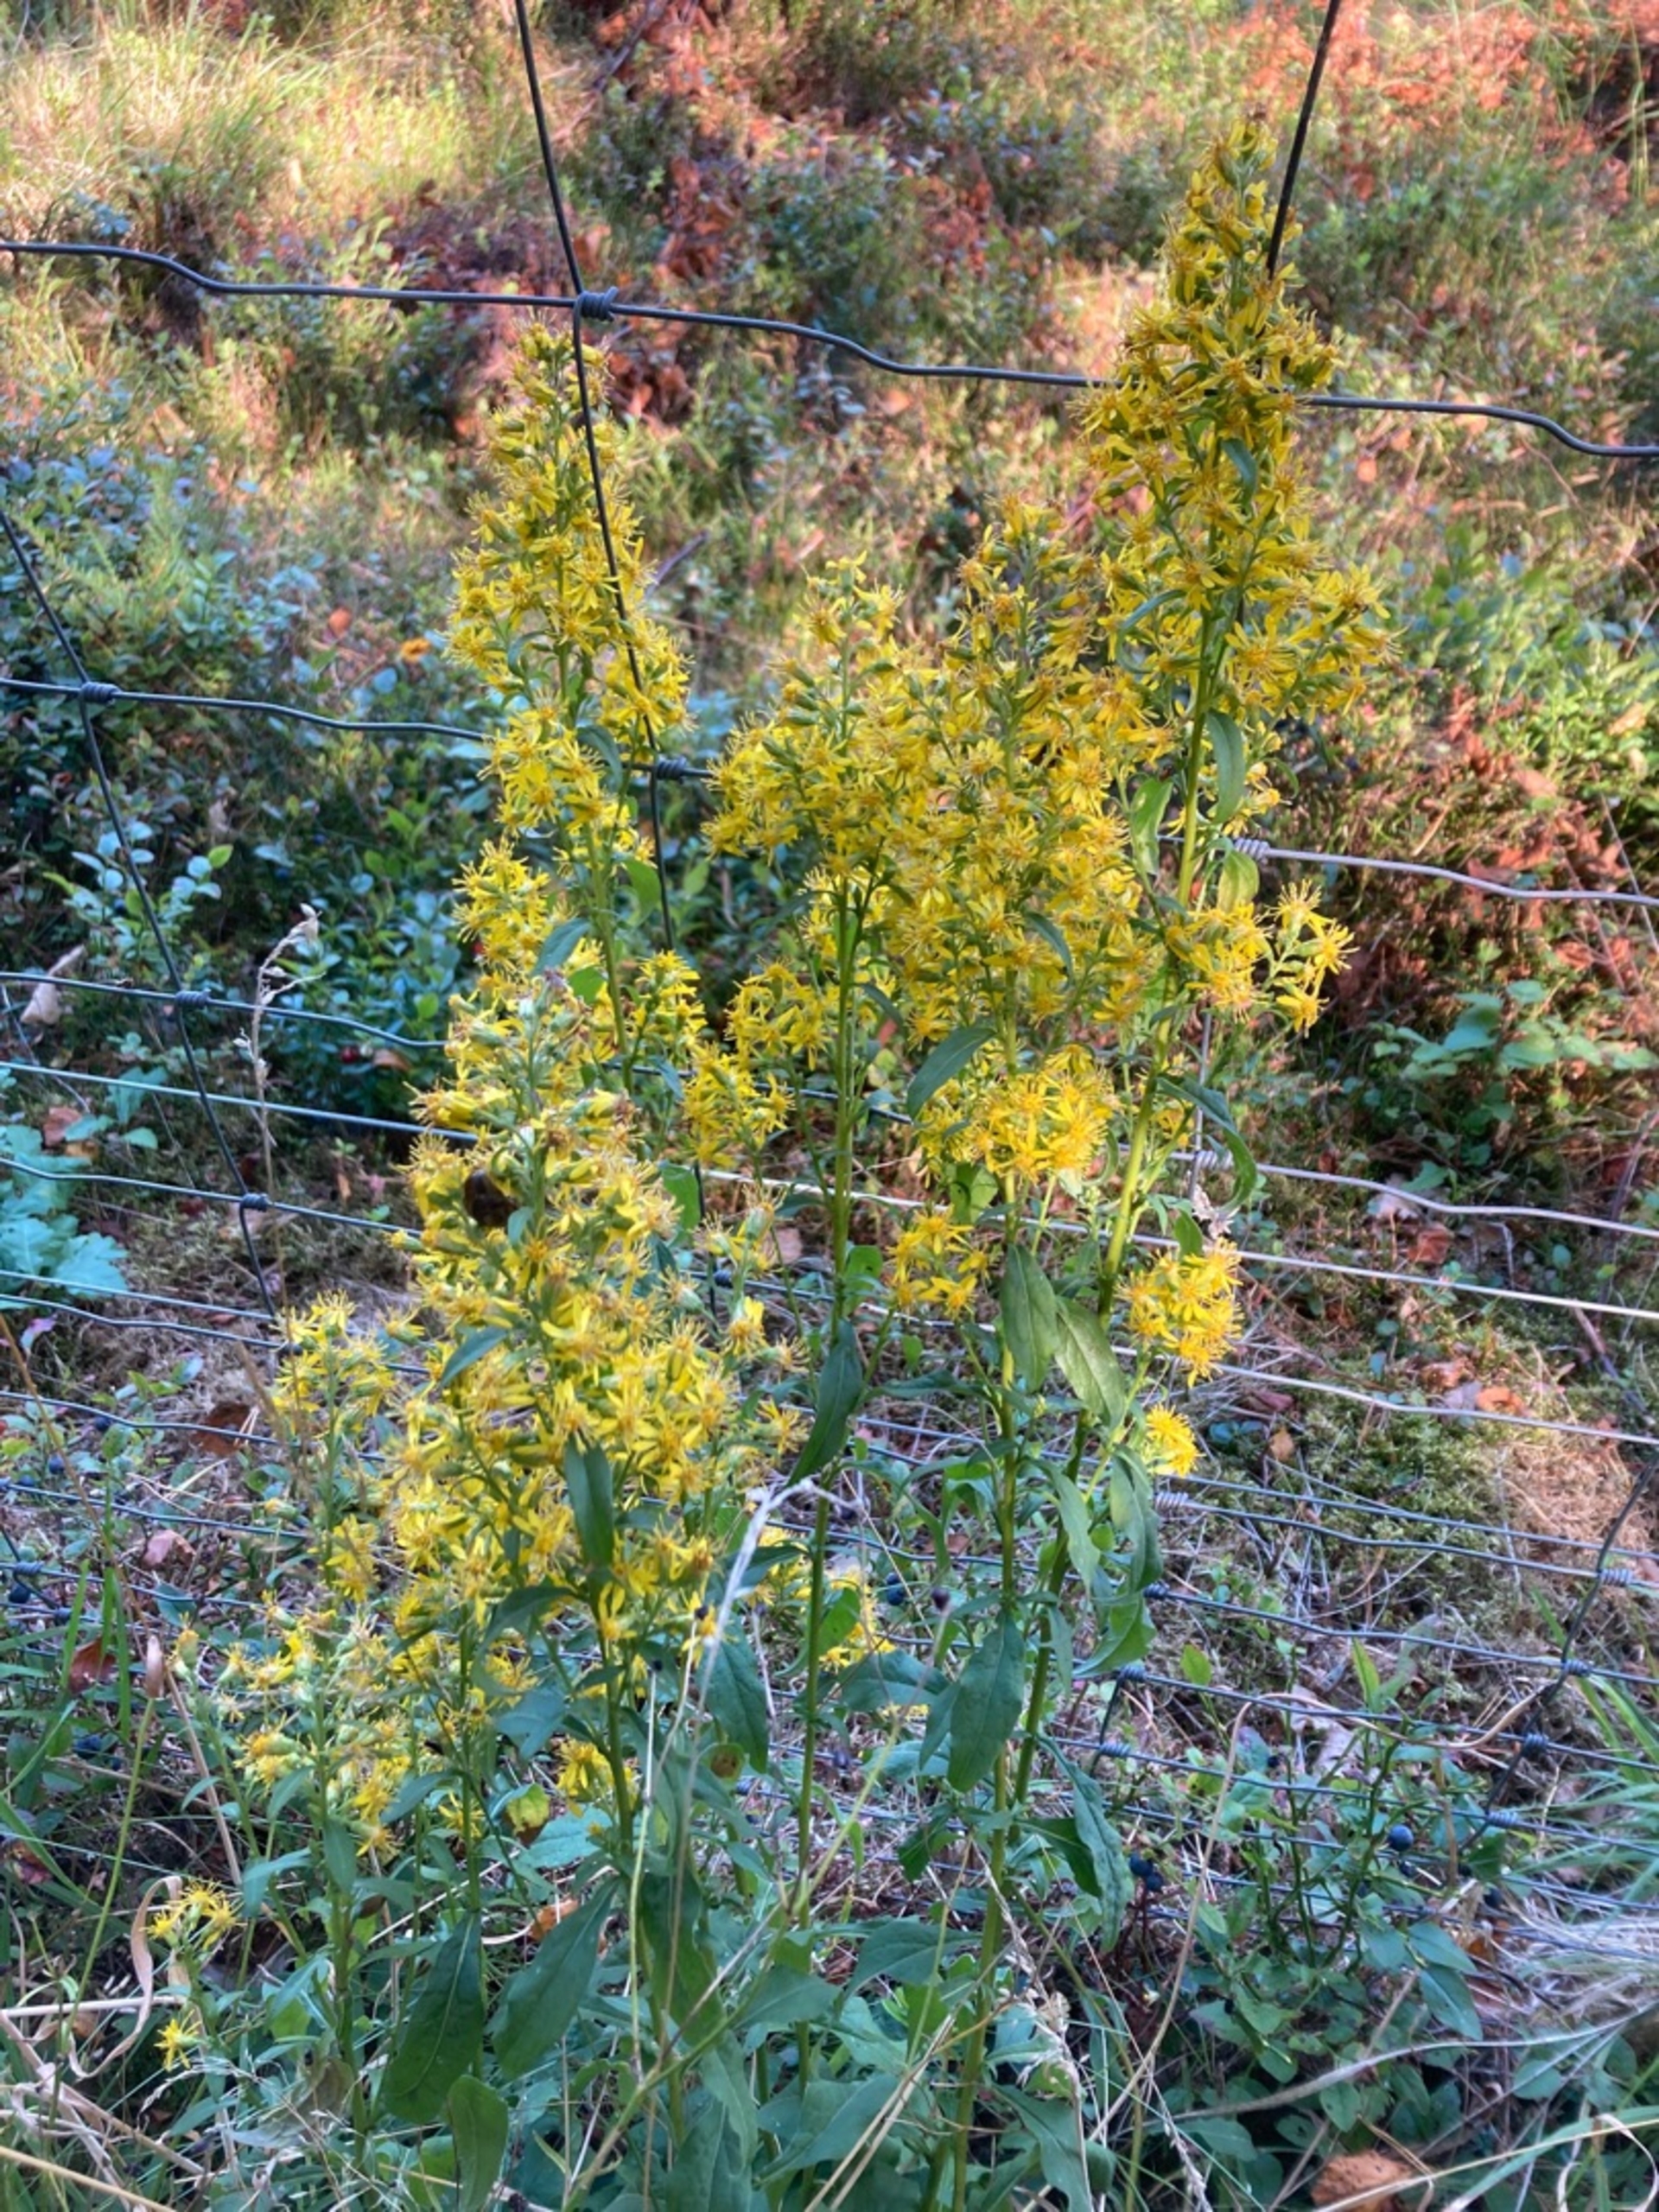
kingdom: Plantae
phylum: Tracheophyta
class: Magnoliopsida
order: Asterales
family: Asteraceae
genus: Solidago
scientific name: Solidago virgaurea
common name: Almindelig gyldenris
